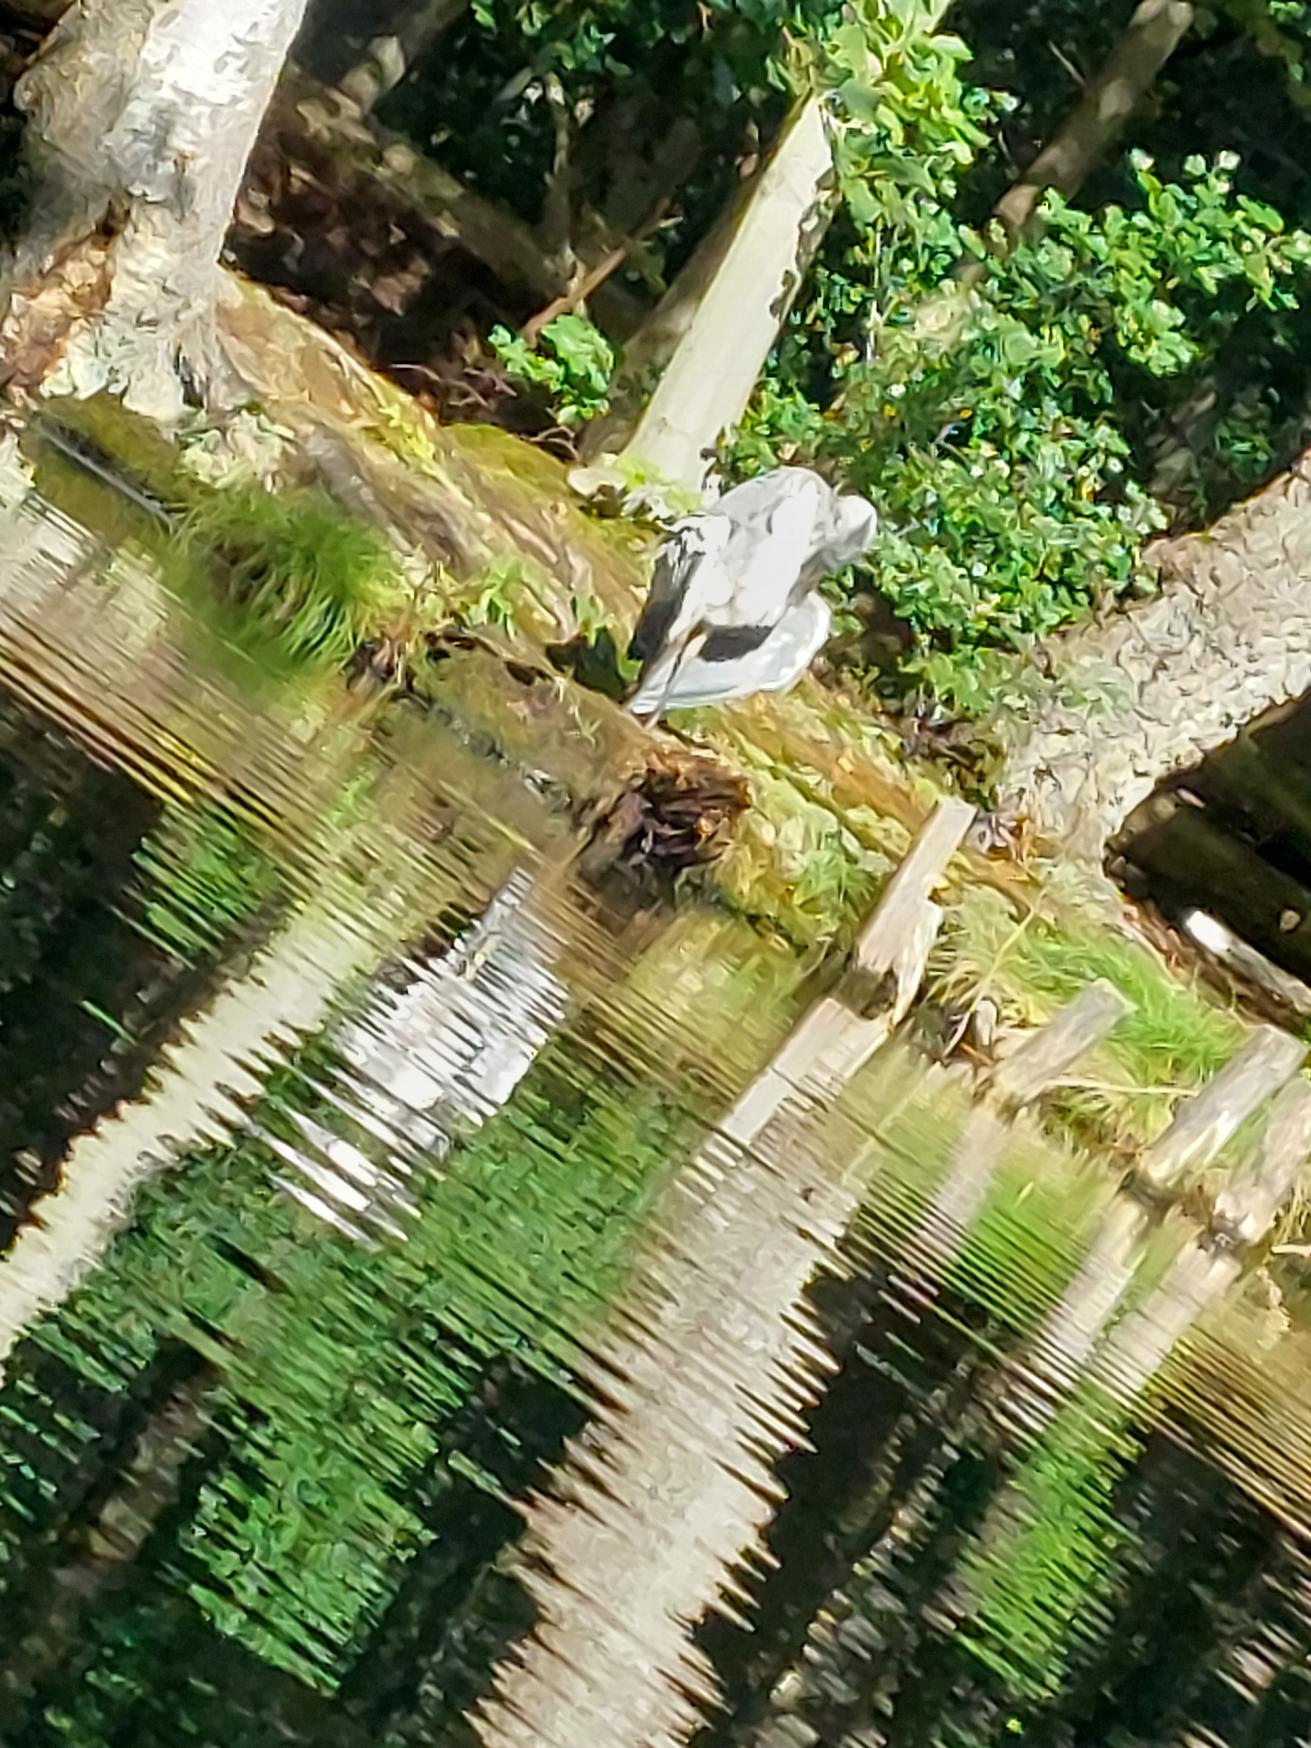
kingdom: Animalia
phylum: Chordata
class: Aves
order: Pelecaniformes
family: Ardeidae
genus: Ardea
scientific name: Ardea cinerea
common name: Fiskehejre
